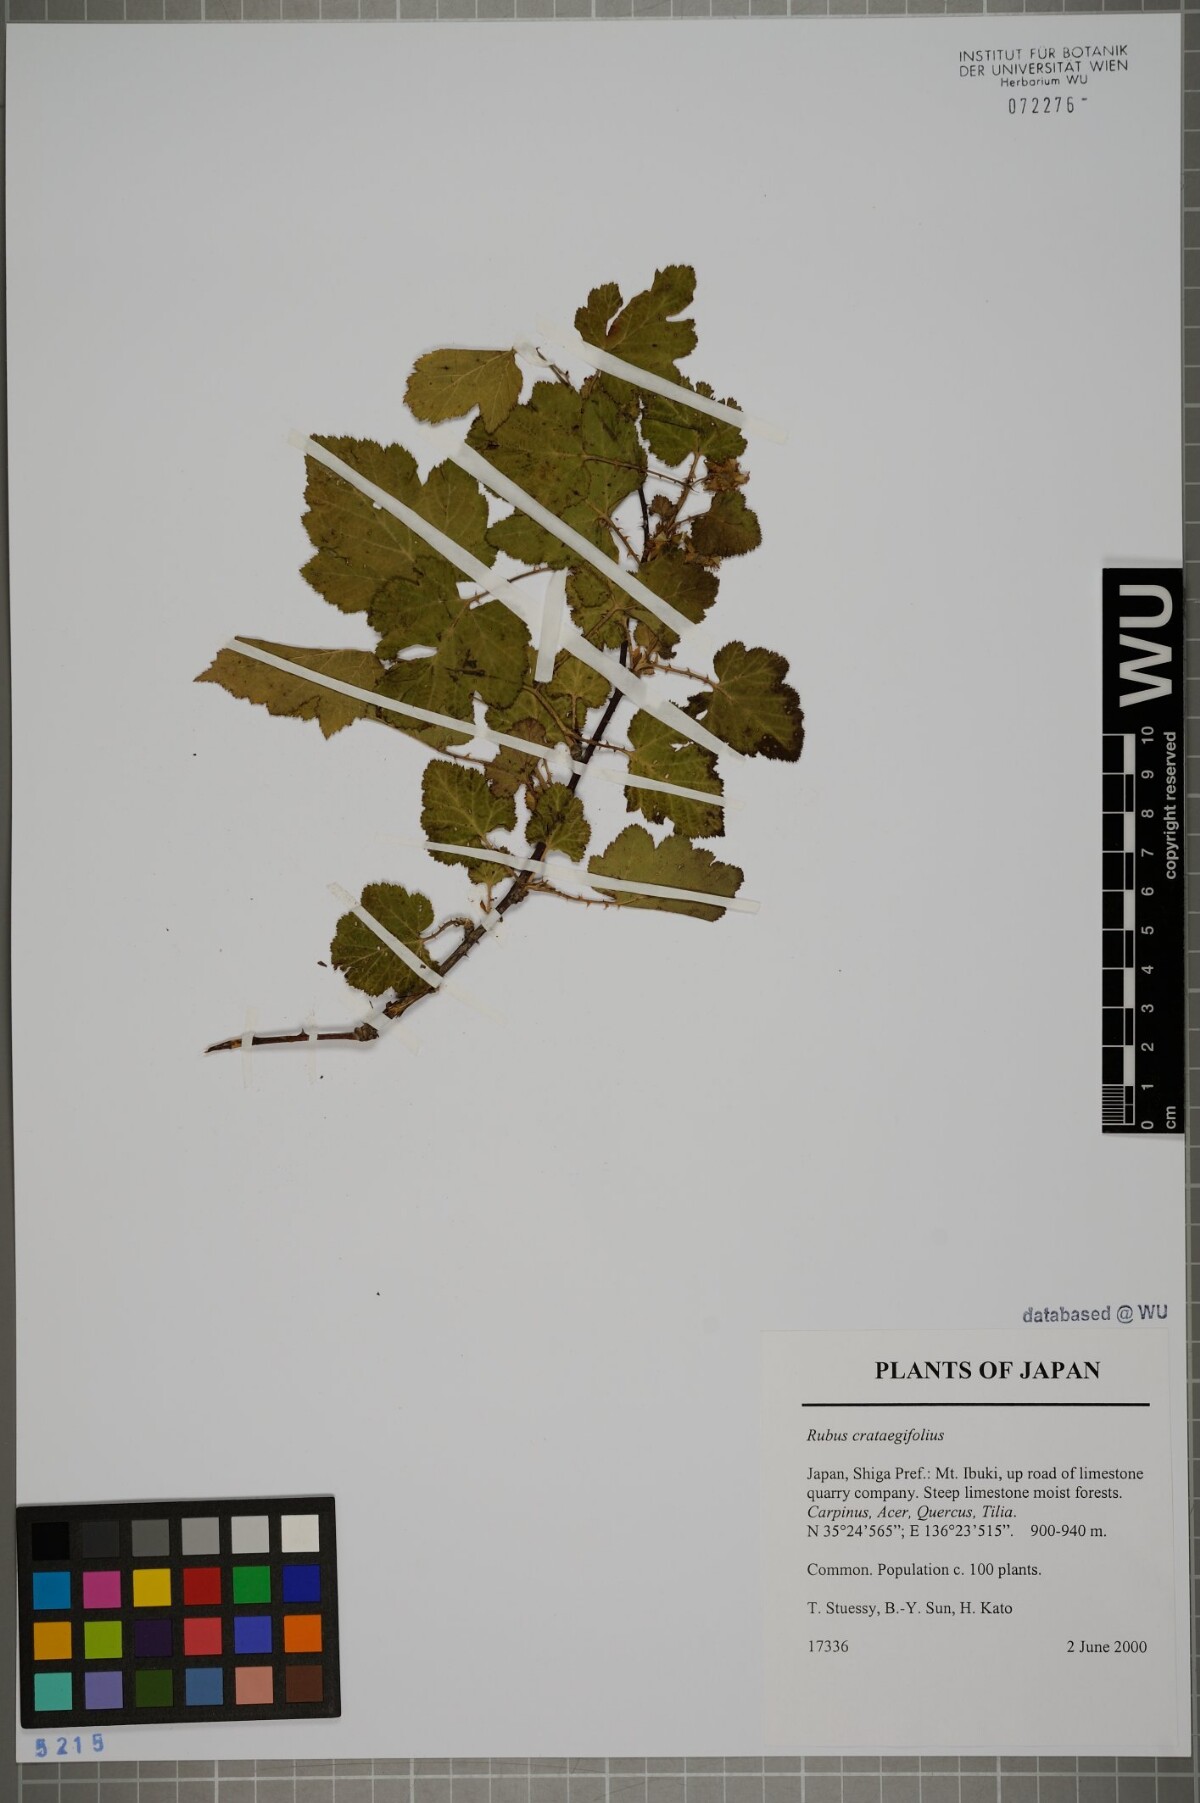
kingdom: Plantae
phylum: Tracheophyta
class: Magnoliopsida
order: Rosales
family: Rosaceae
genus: Rubus
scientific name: Rubus crataegifolius
